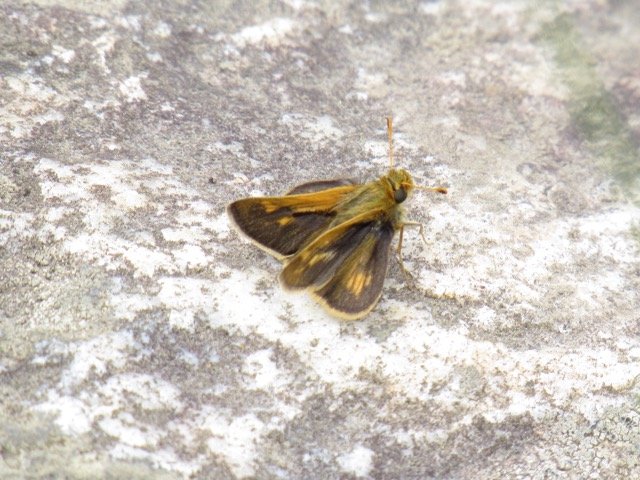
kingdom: Animalia
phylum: Arthropoda
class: Insecta
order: Lepidoptera
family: Hesperiidae
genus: Polites
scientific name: Polites coras
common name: Peck's Skipper
